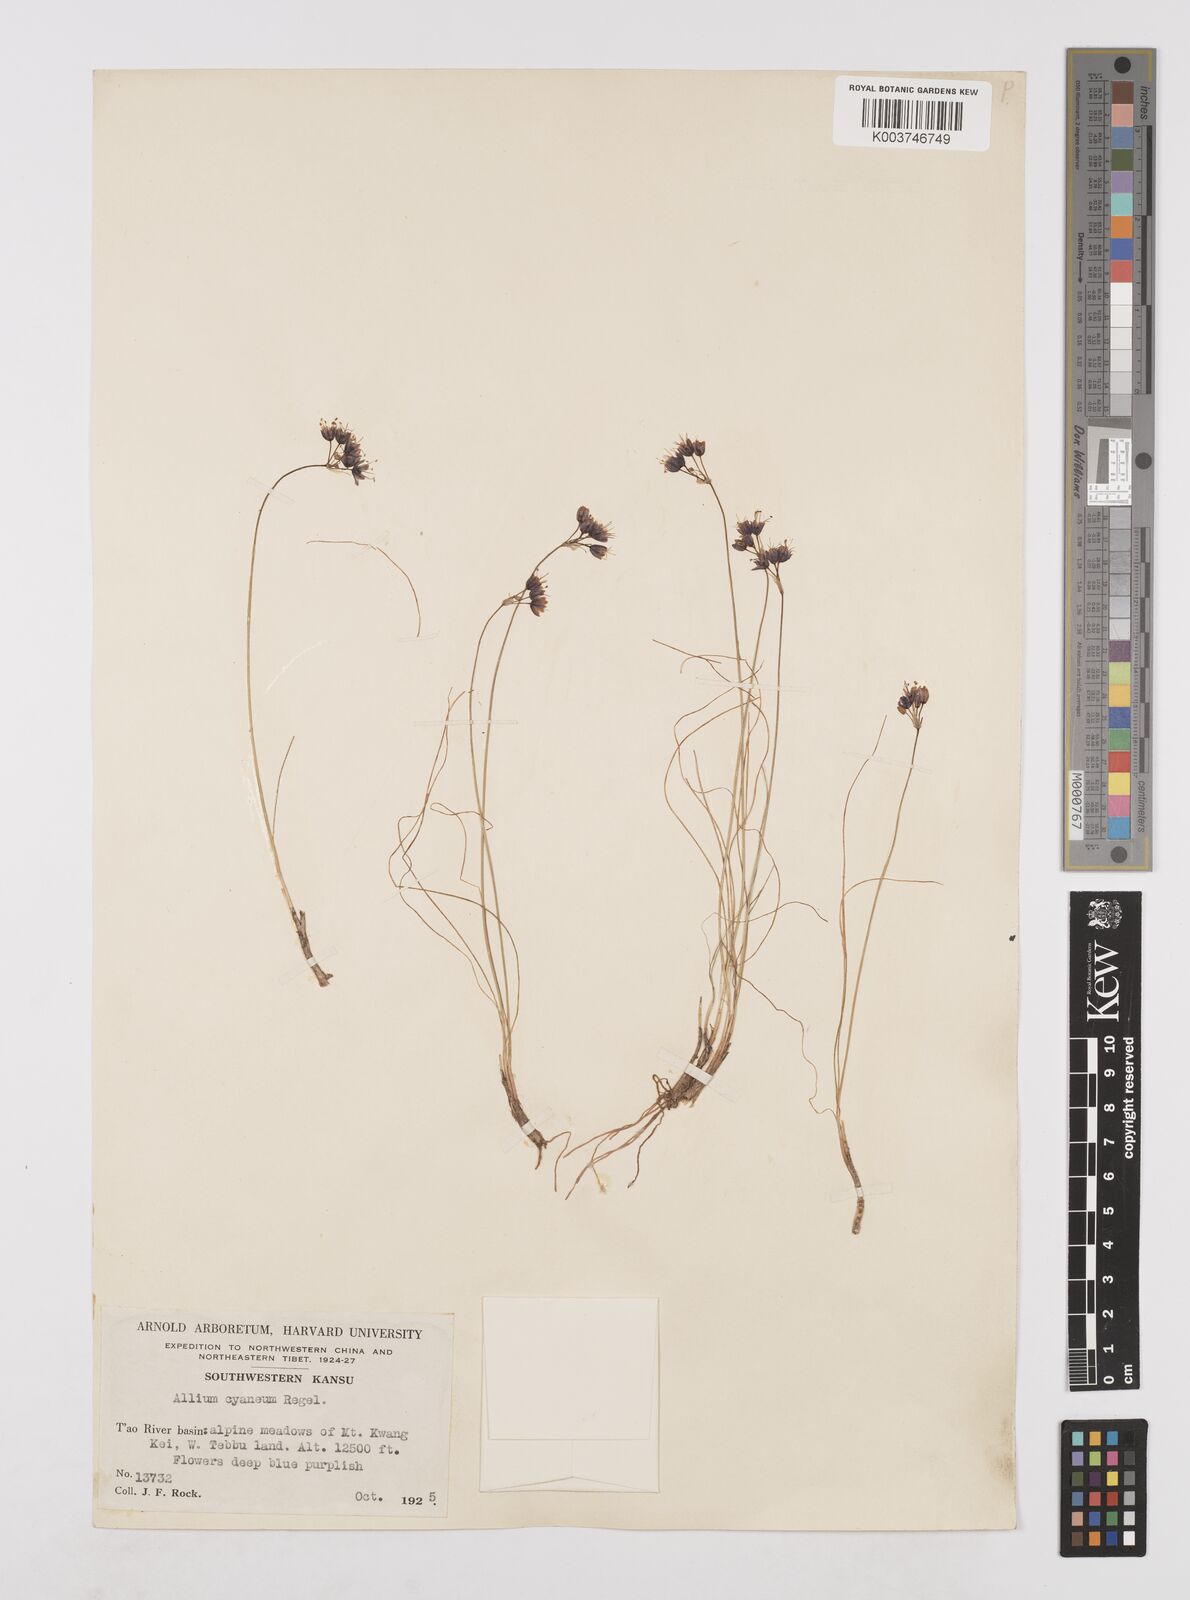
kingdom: Plantae
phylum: Tracheophyta
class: Liliopsida
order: Asparagales
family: Amaryllidaceae
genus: Allium
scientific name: Allium cyaneum
